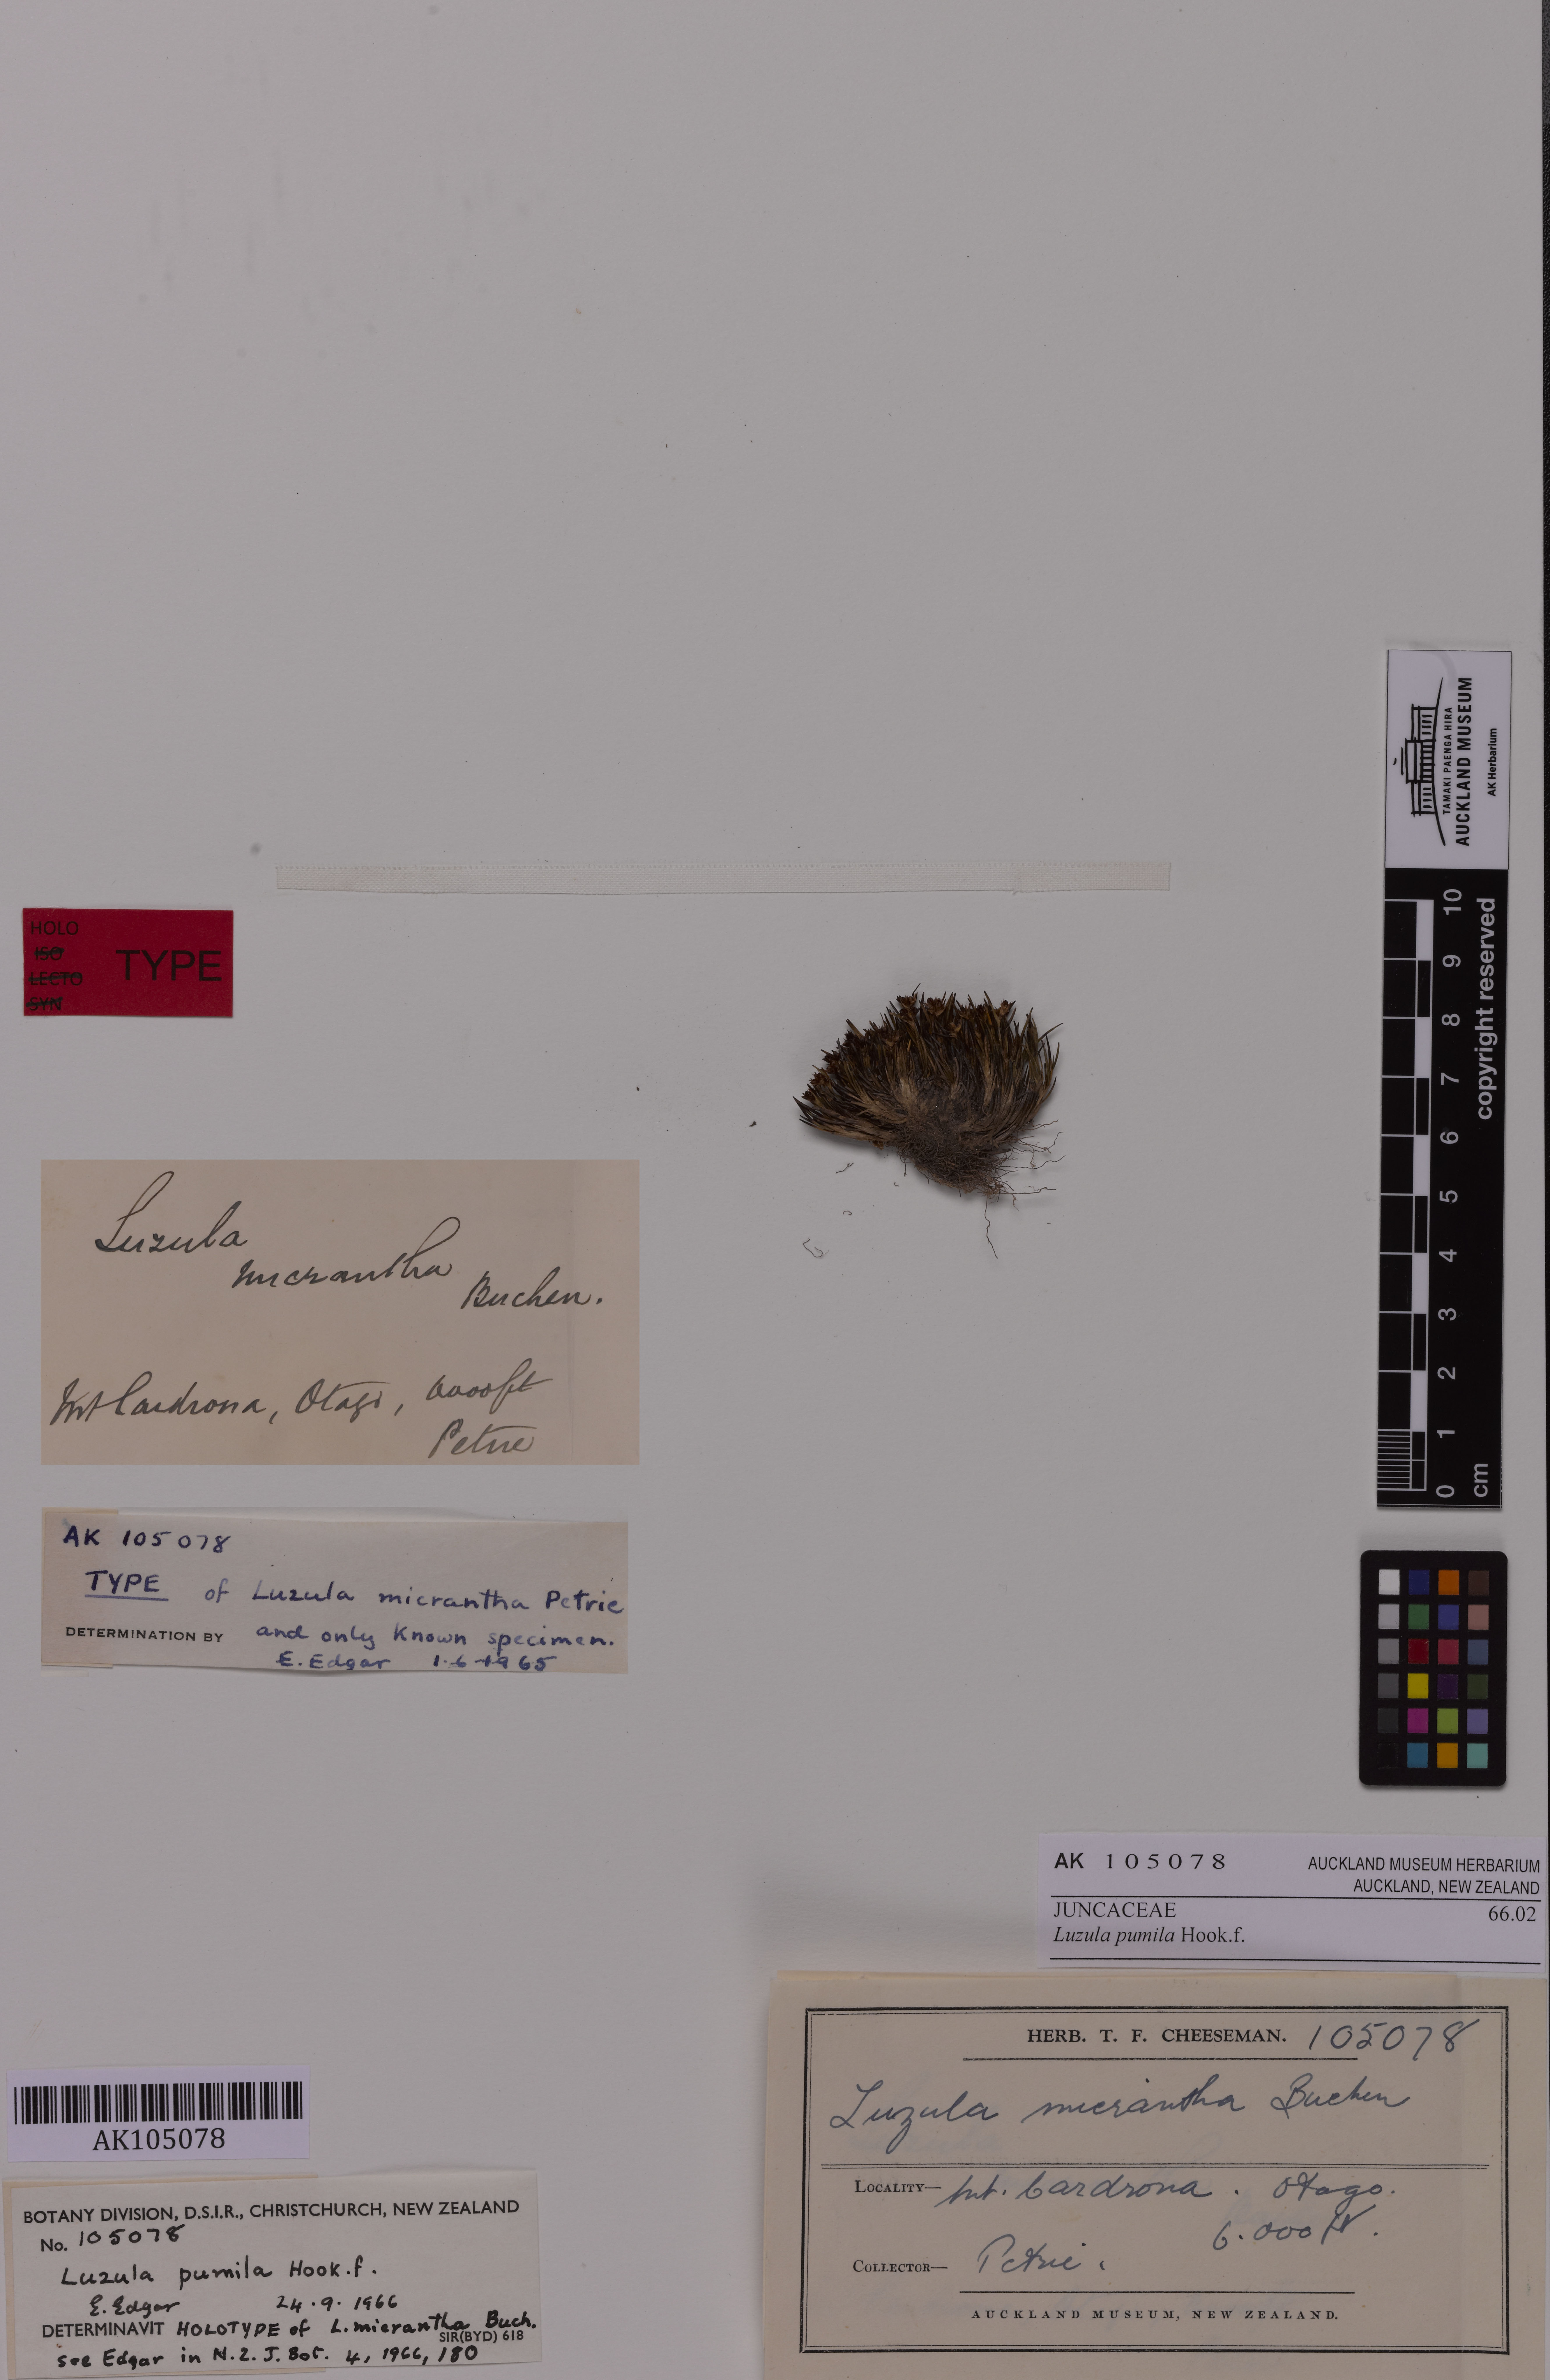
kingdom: Plantae
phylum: Tracheophyta
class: Liliopsida
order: Poales
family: Juncaceae
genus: Luzula
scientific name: Luzula pumila
